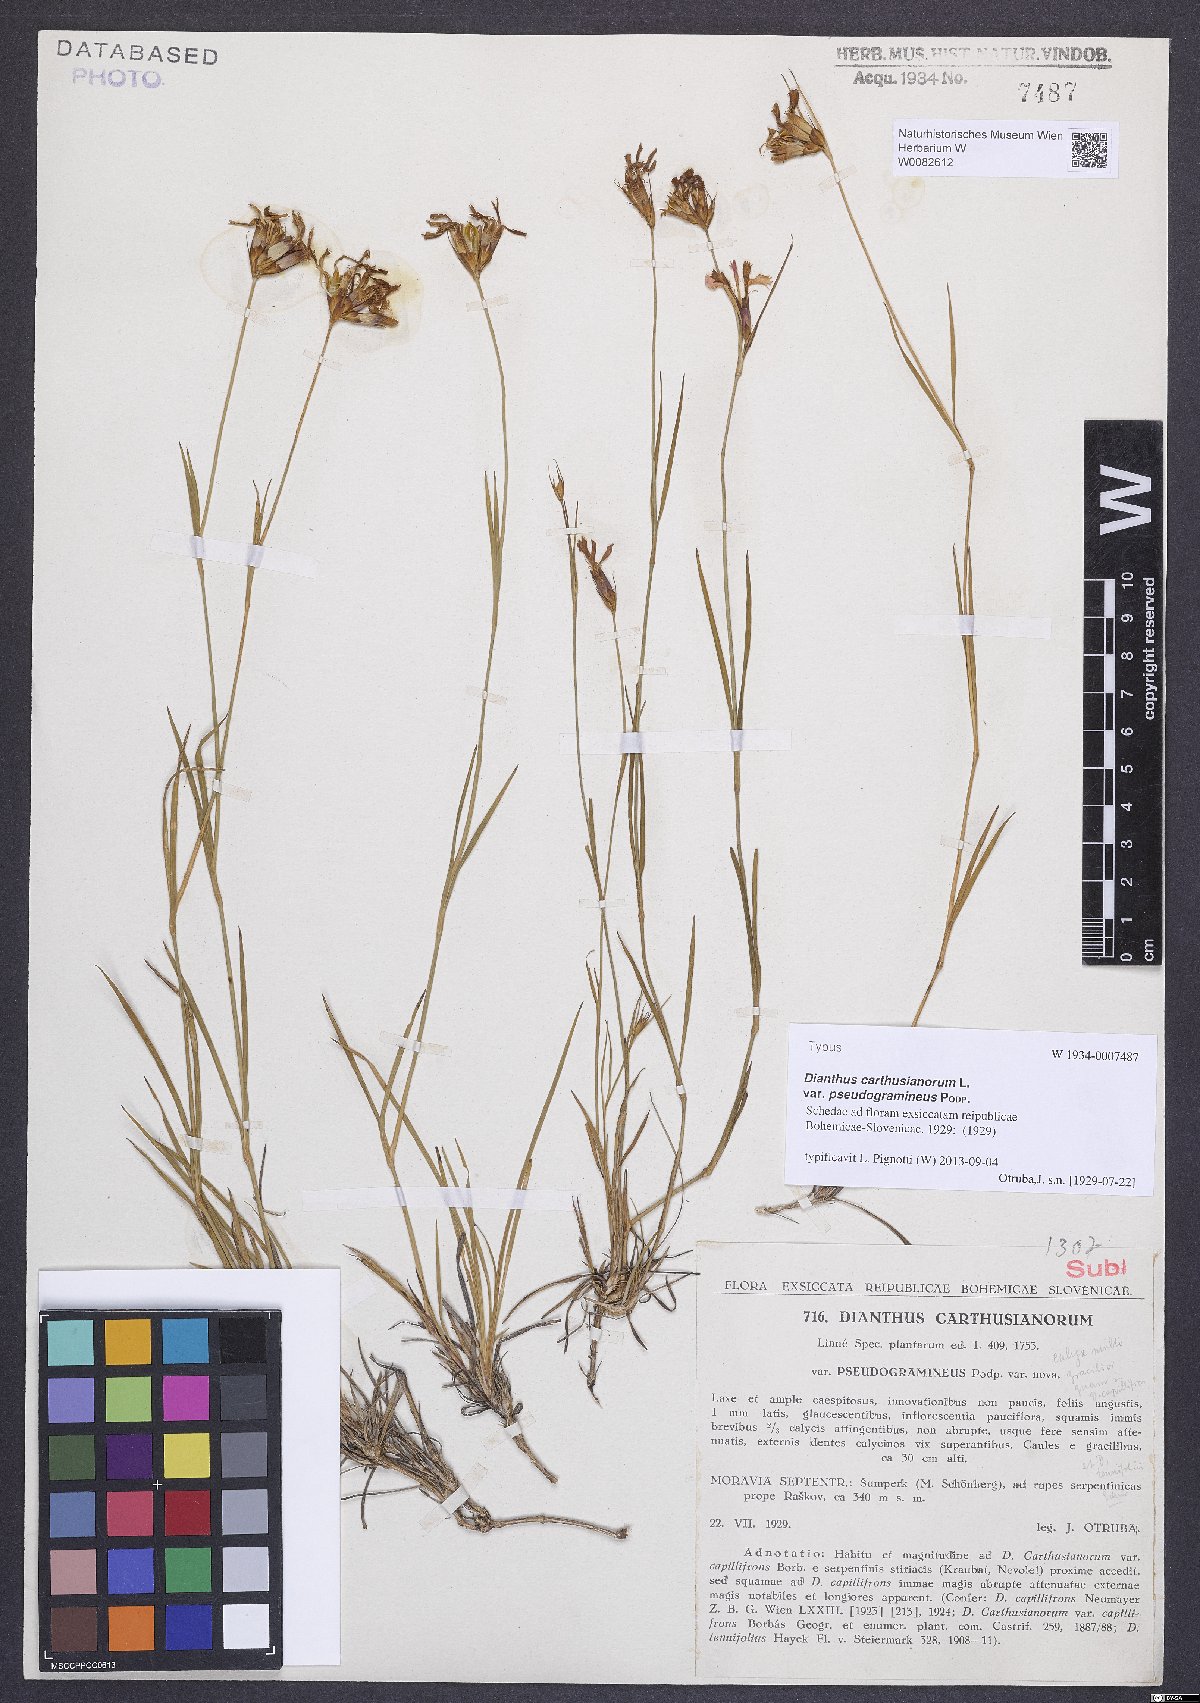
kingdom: Plantae
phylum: Tracheophyta
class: Magnoliopsida
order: Caryophyllales
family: Caryophyllaceae
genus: Dianthus
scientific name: Dianthus carthusianorum
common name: Carthusian pink
